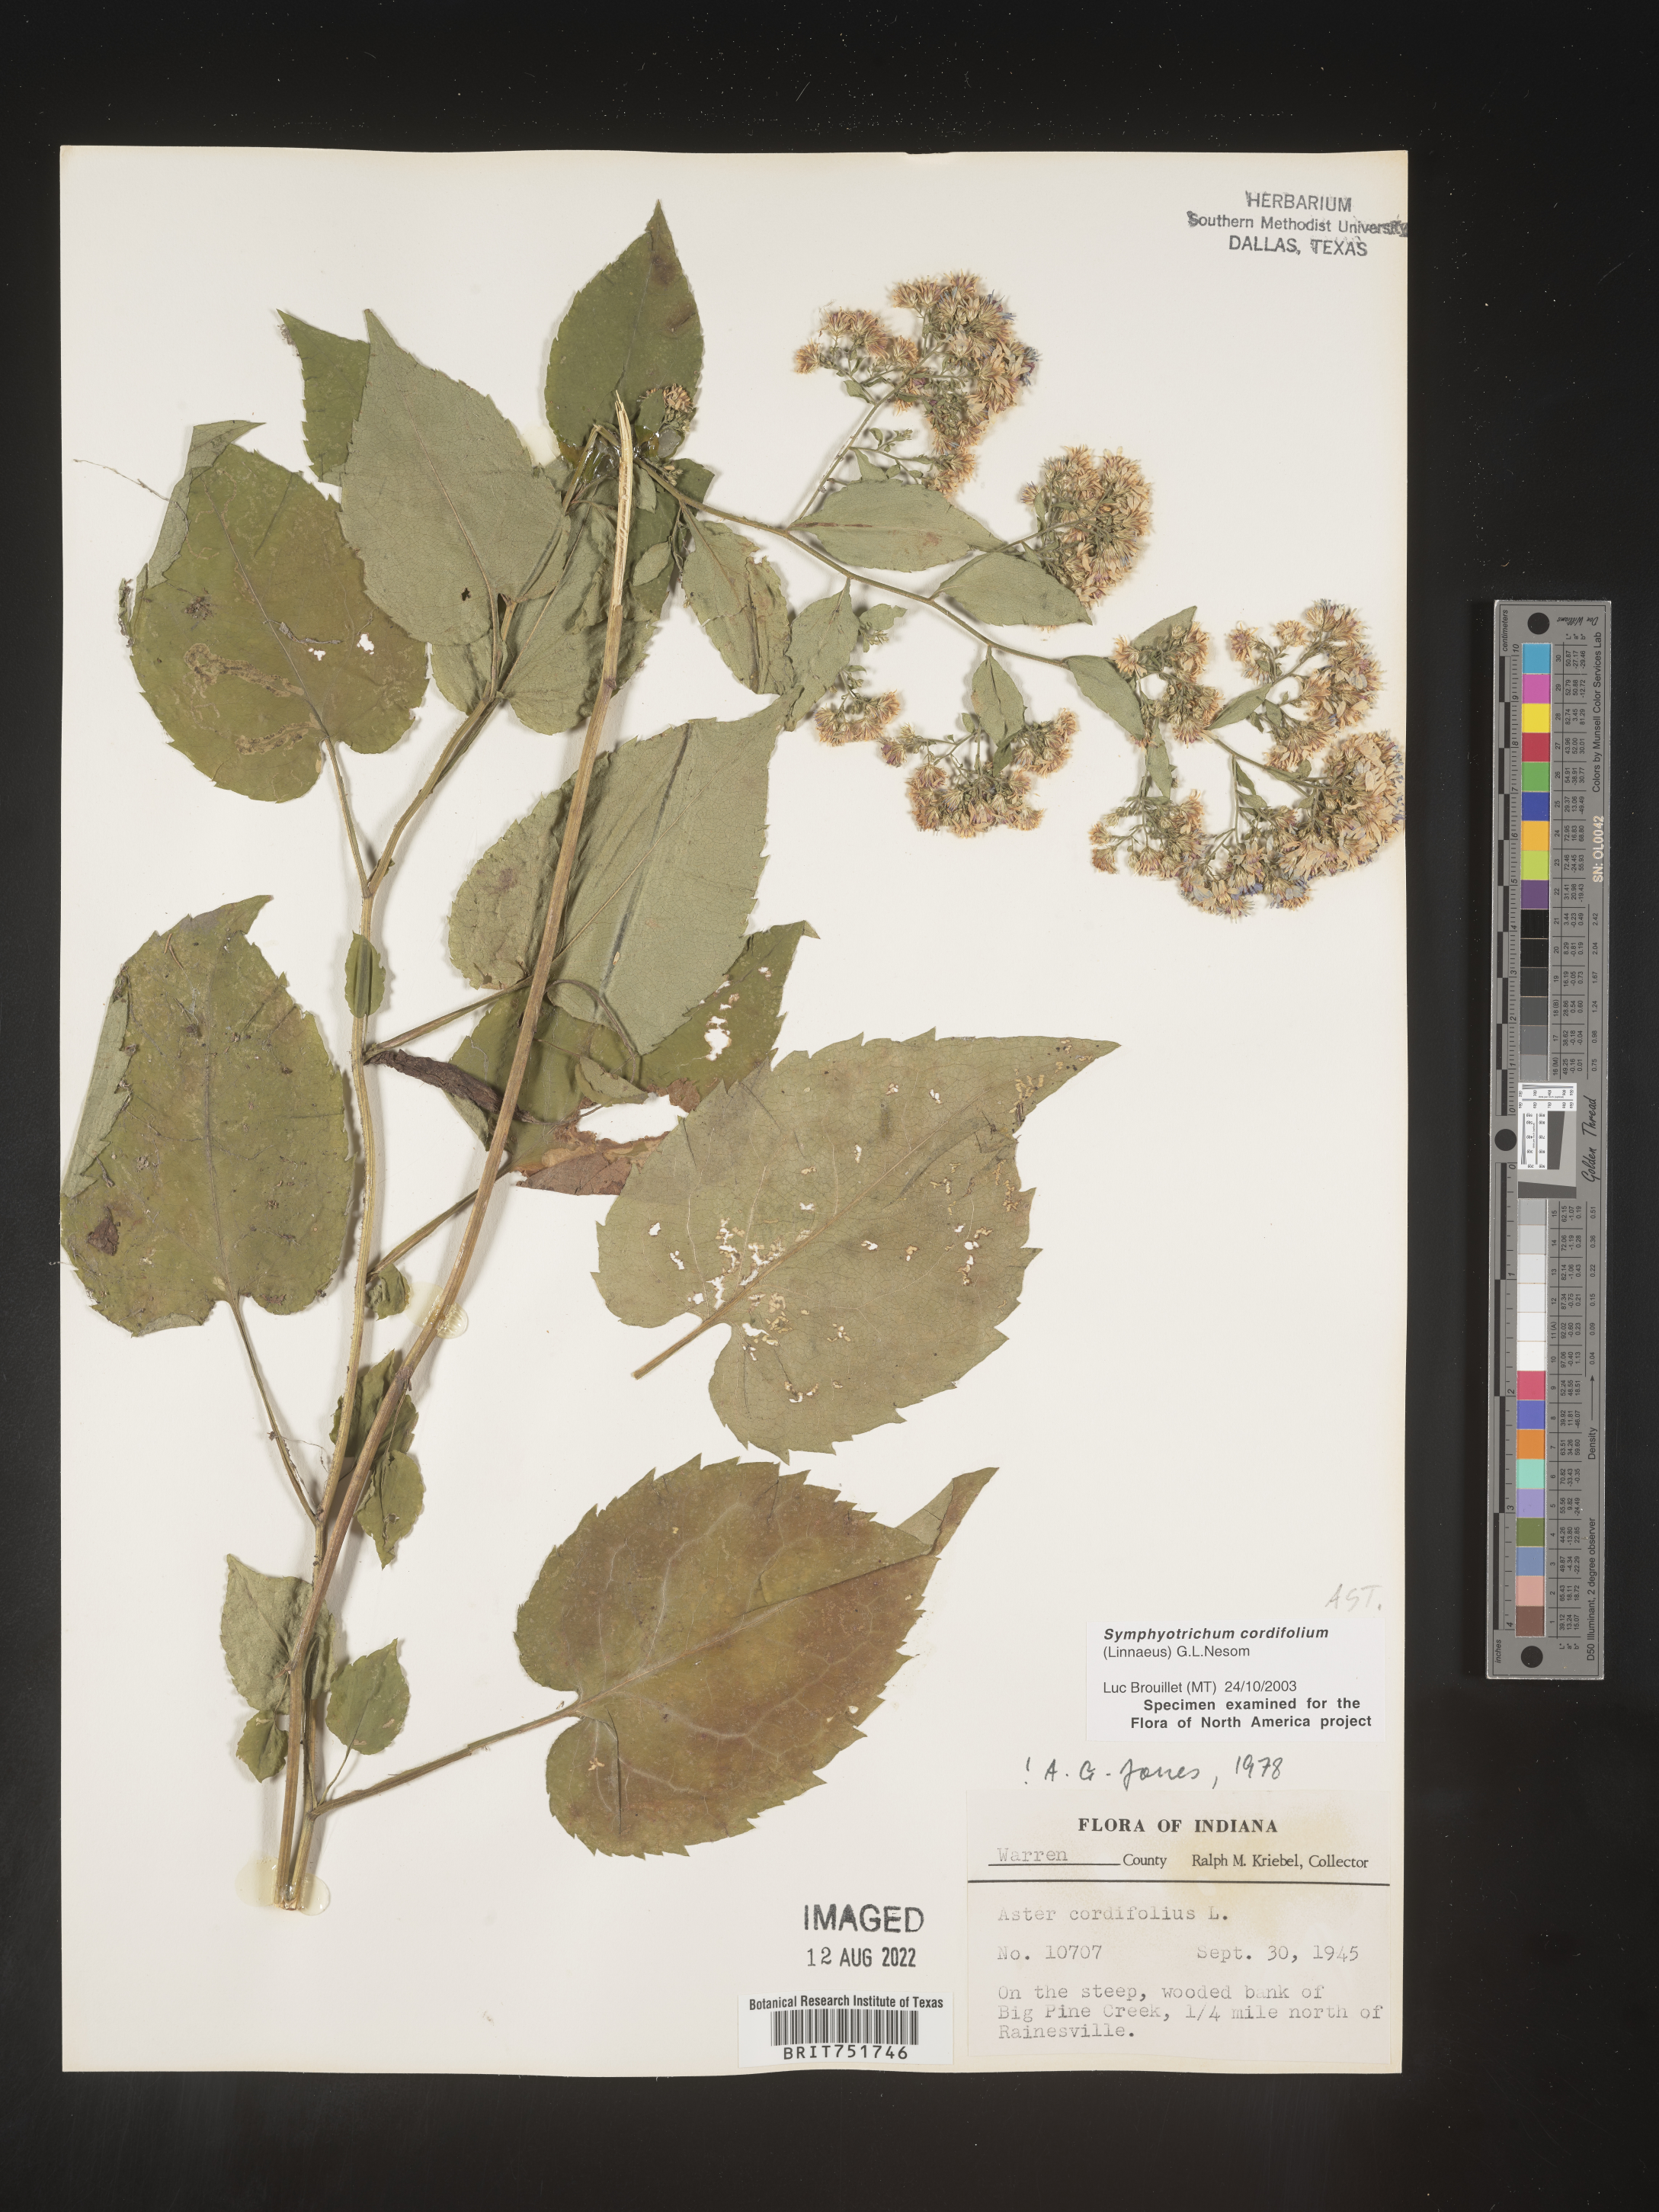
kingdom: Plantae
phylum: Tracheophyta
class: Magnoliopsida
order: Asterales
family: Asteraceae
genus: Symphyotrichum
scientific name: Symphyotrichum cordifolium
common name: Beeweed
